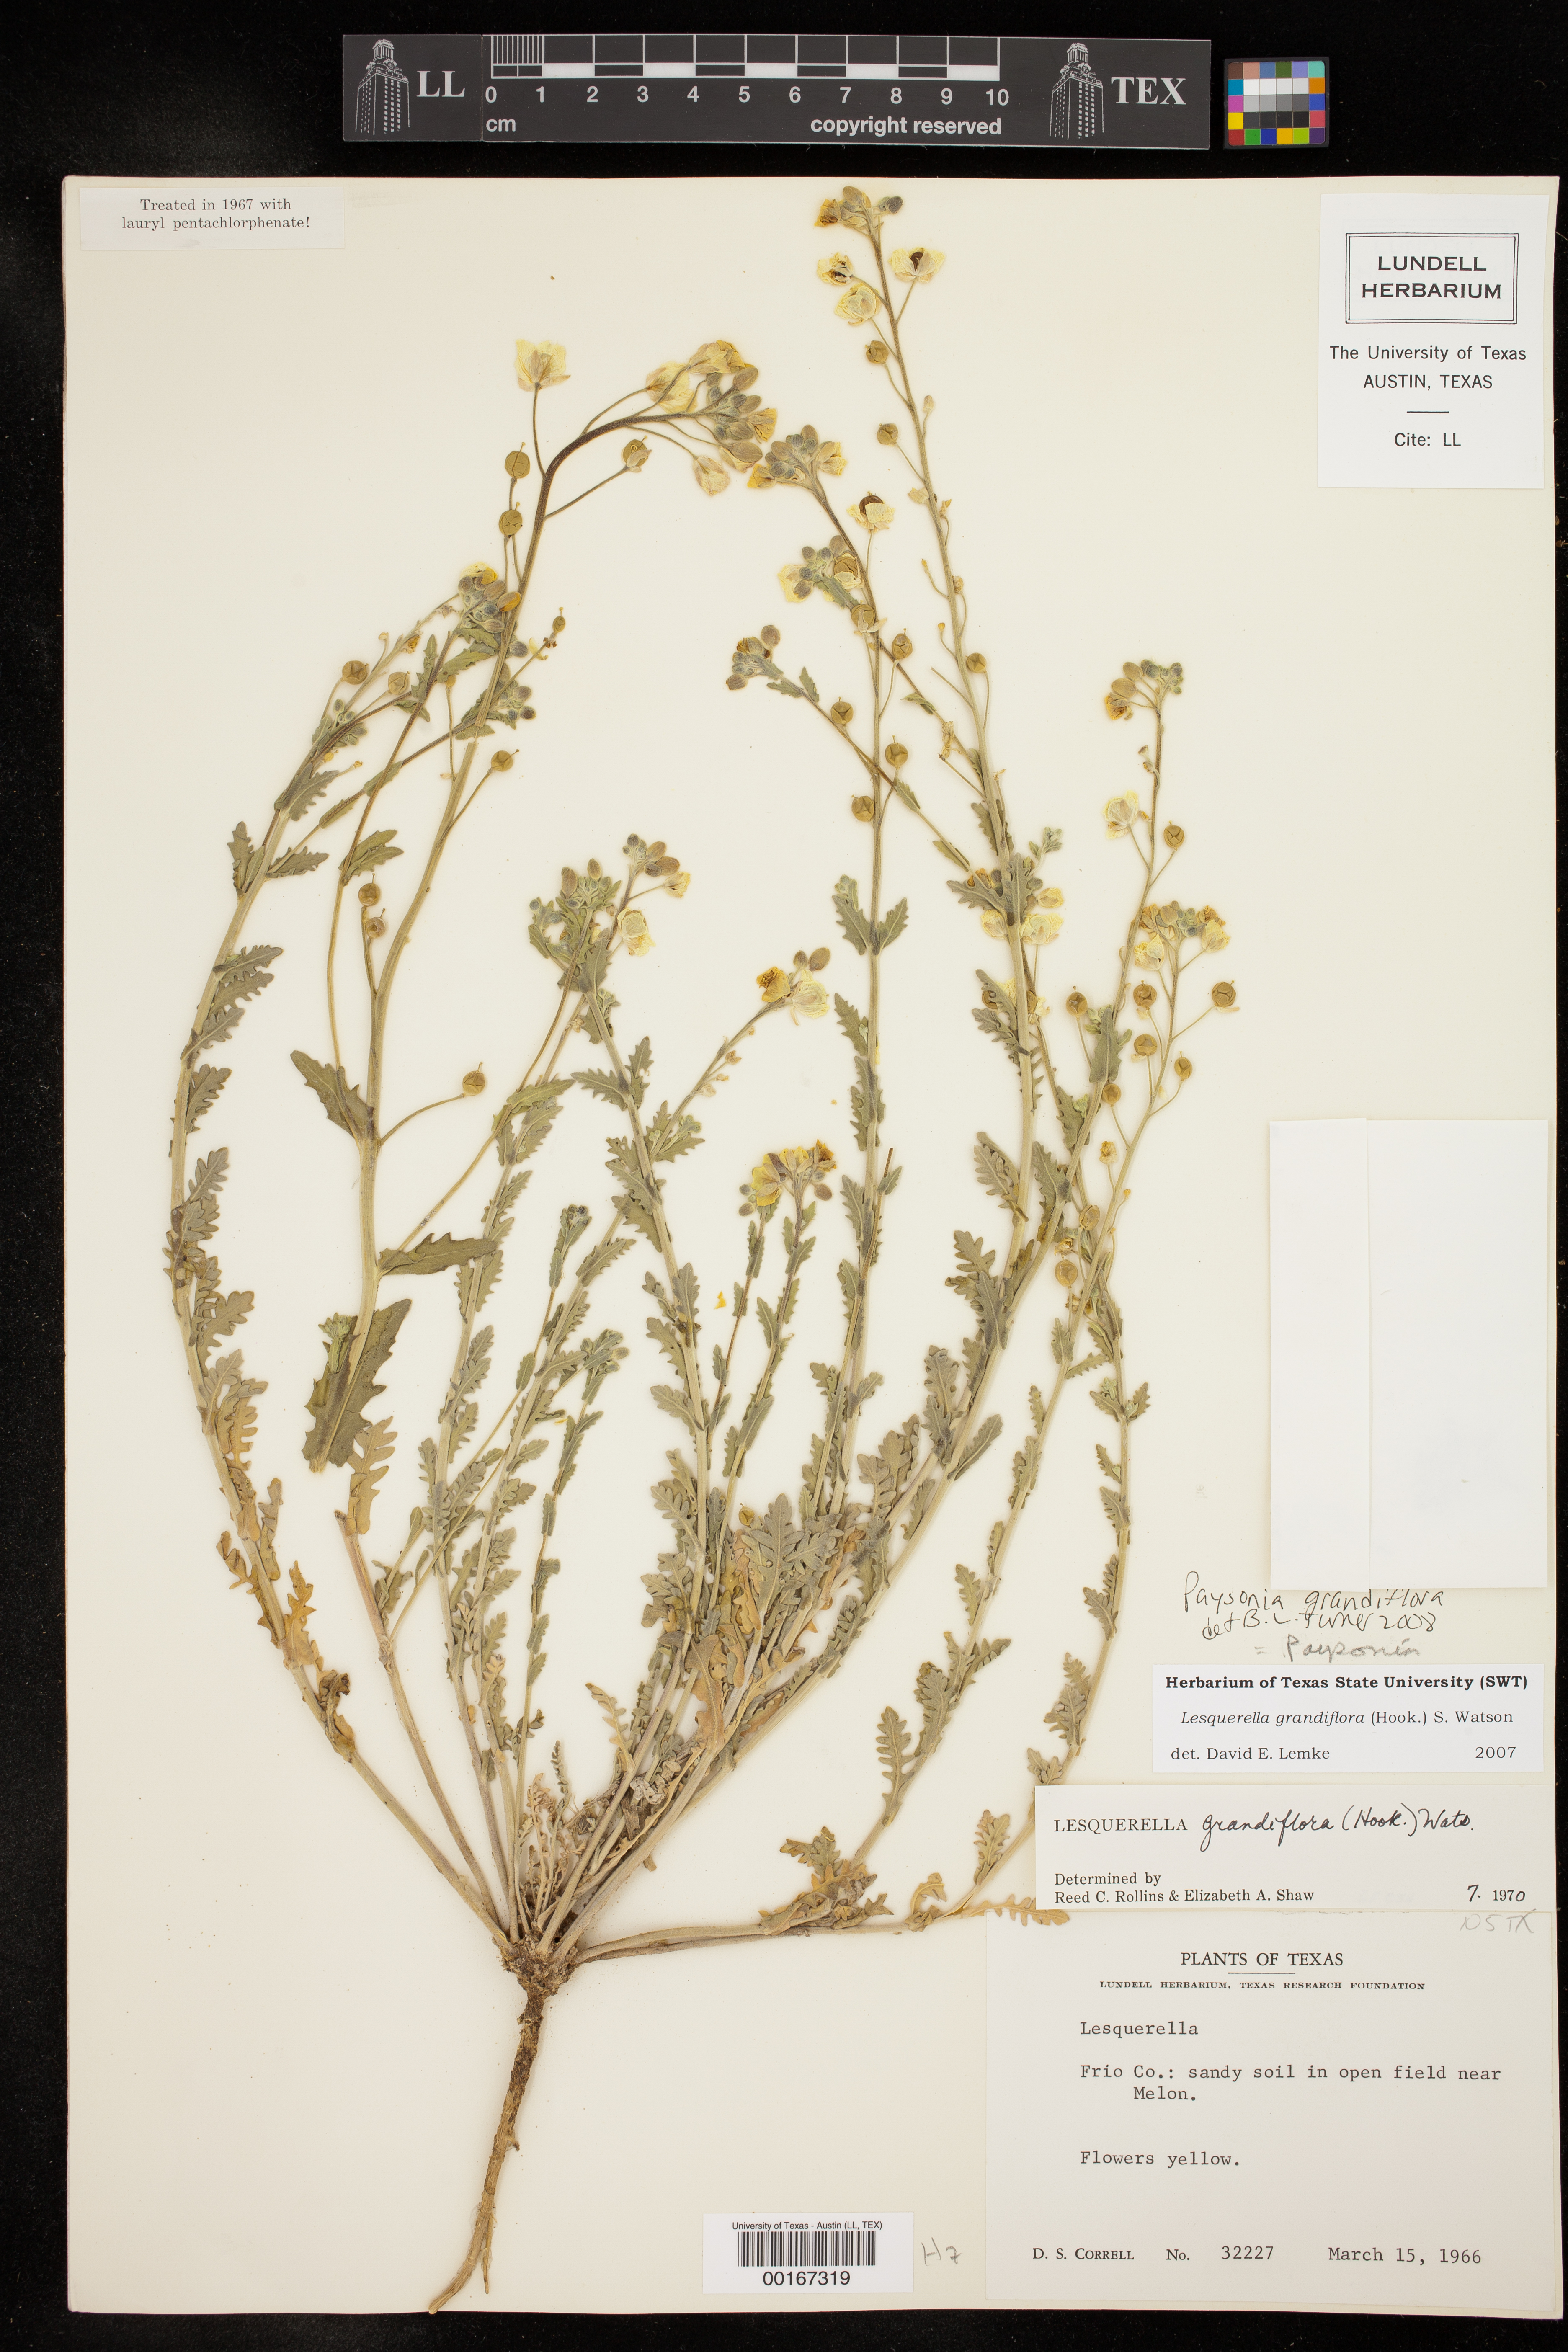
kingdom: Plantae
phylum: Tracheophyta
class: Magnoliopsida
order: Brassicales
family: Brassicaceae
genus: Paysonia
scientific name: Paysonia grandiflora
